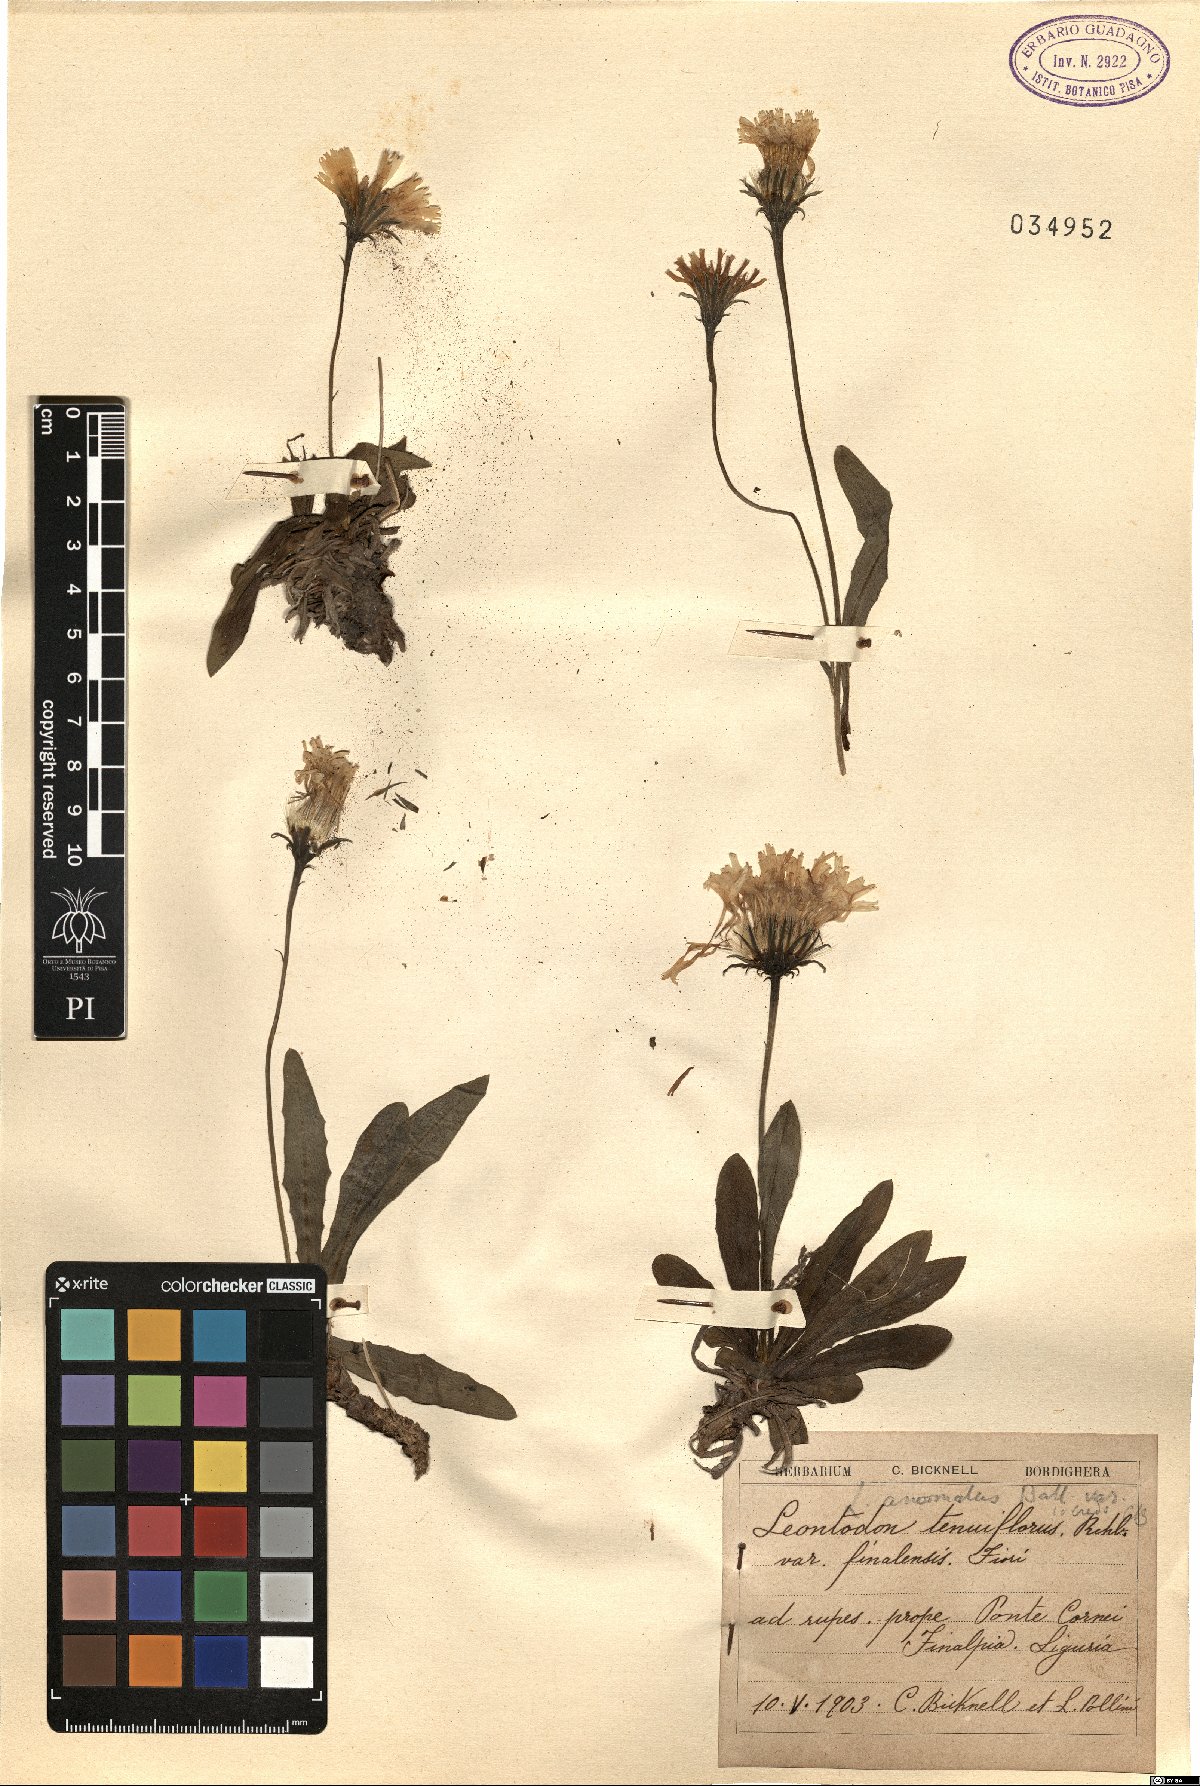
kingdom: Plantae
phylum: Tracheophyta
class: Magnoliopsida
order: Asterales
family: Asteraceae
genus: Leontodon
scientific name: Leontodon tenuiflorus
